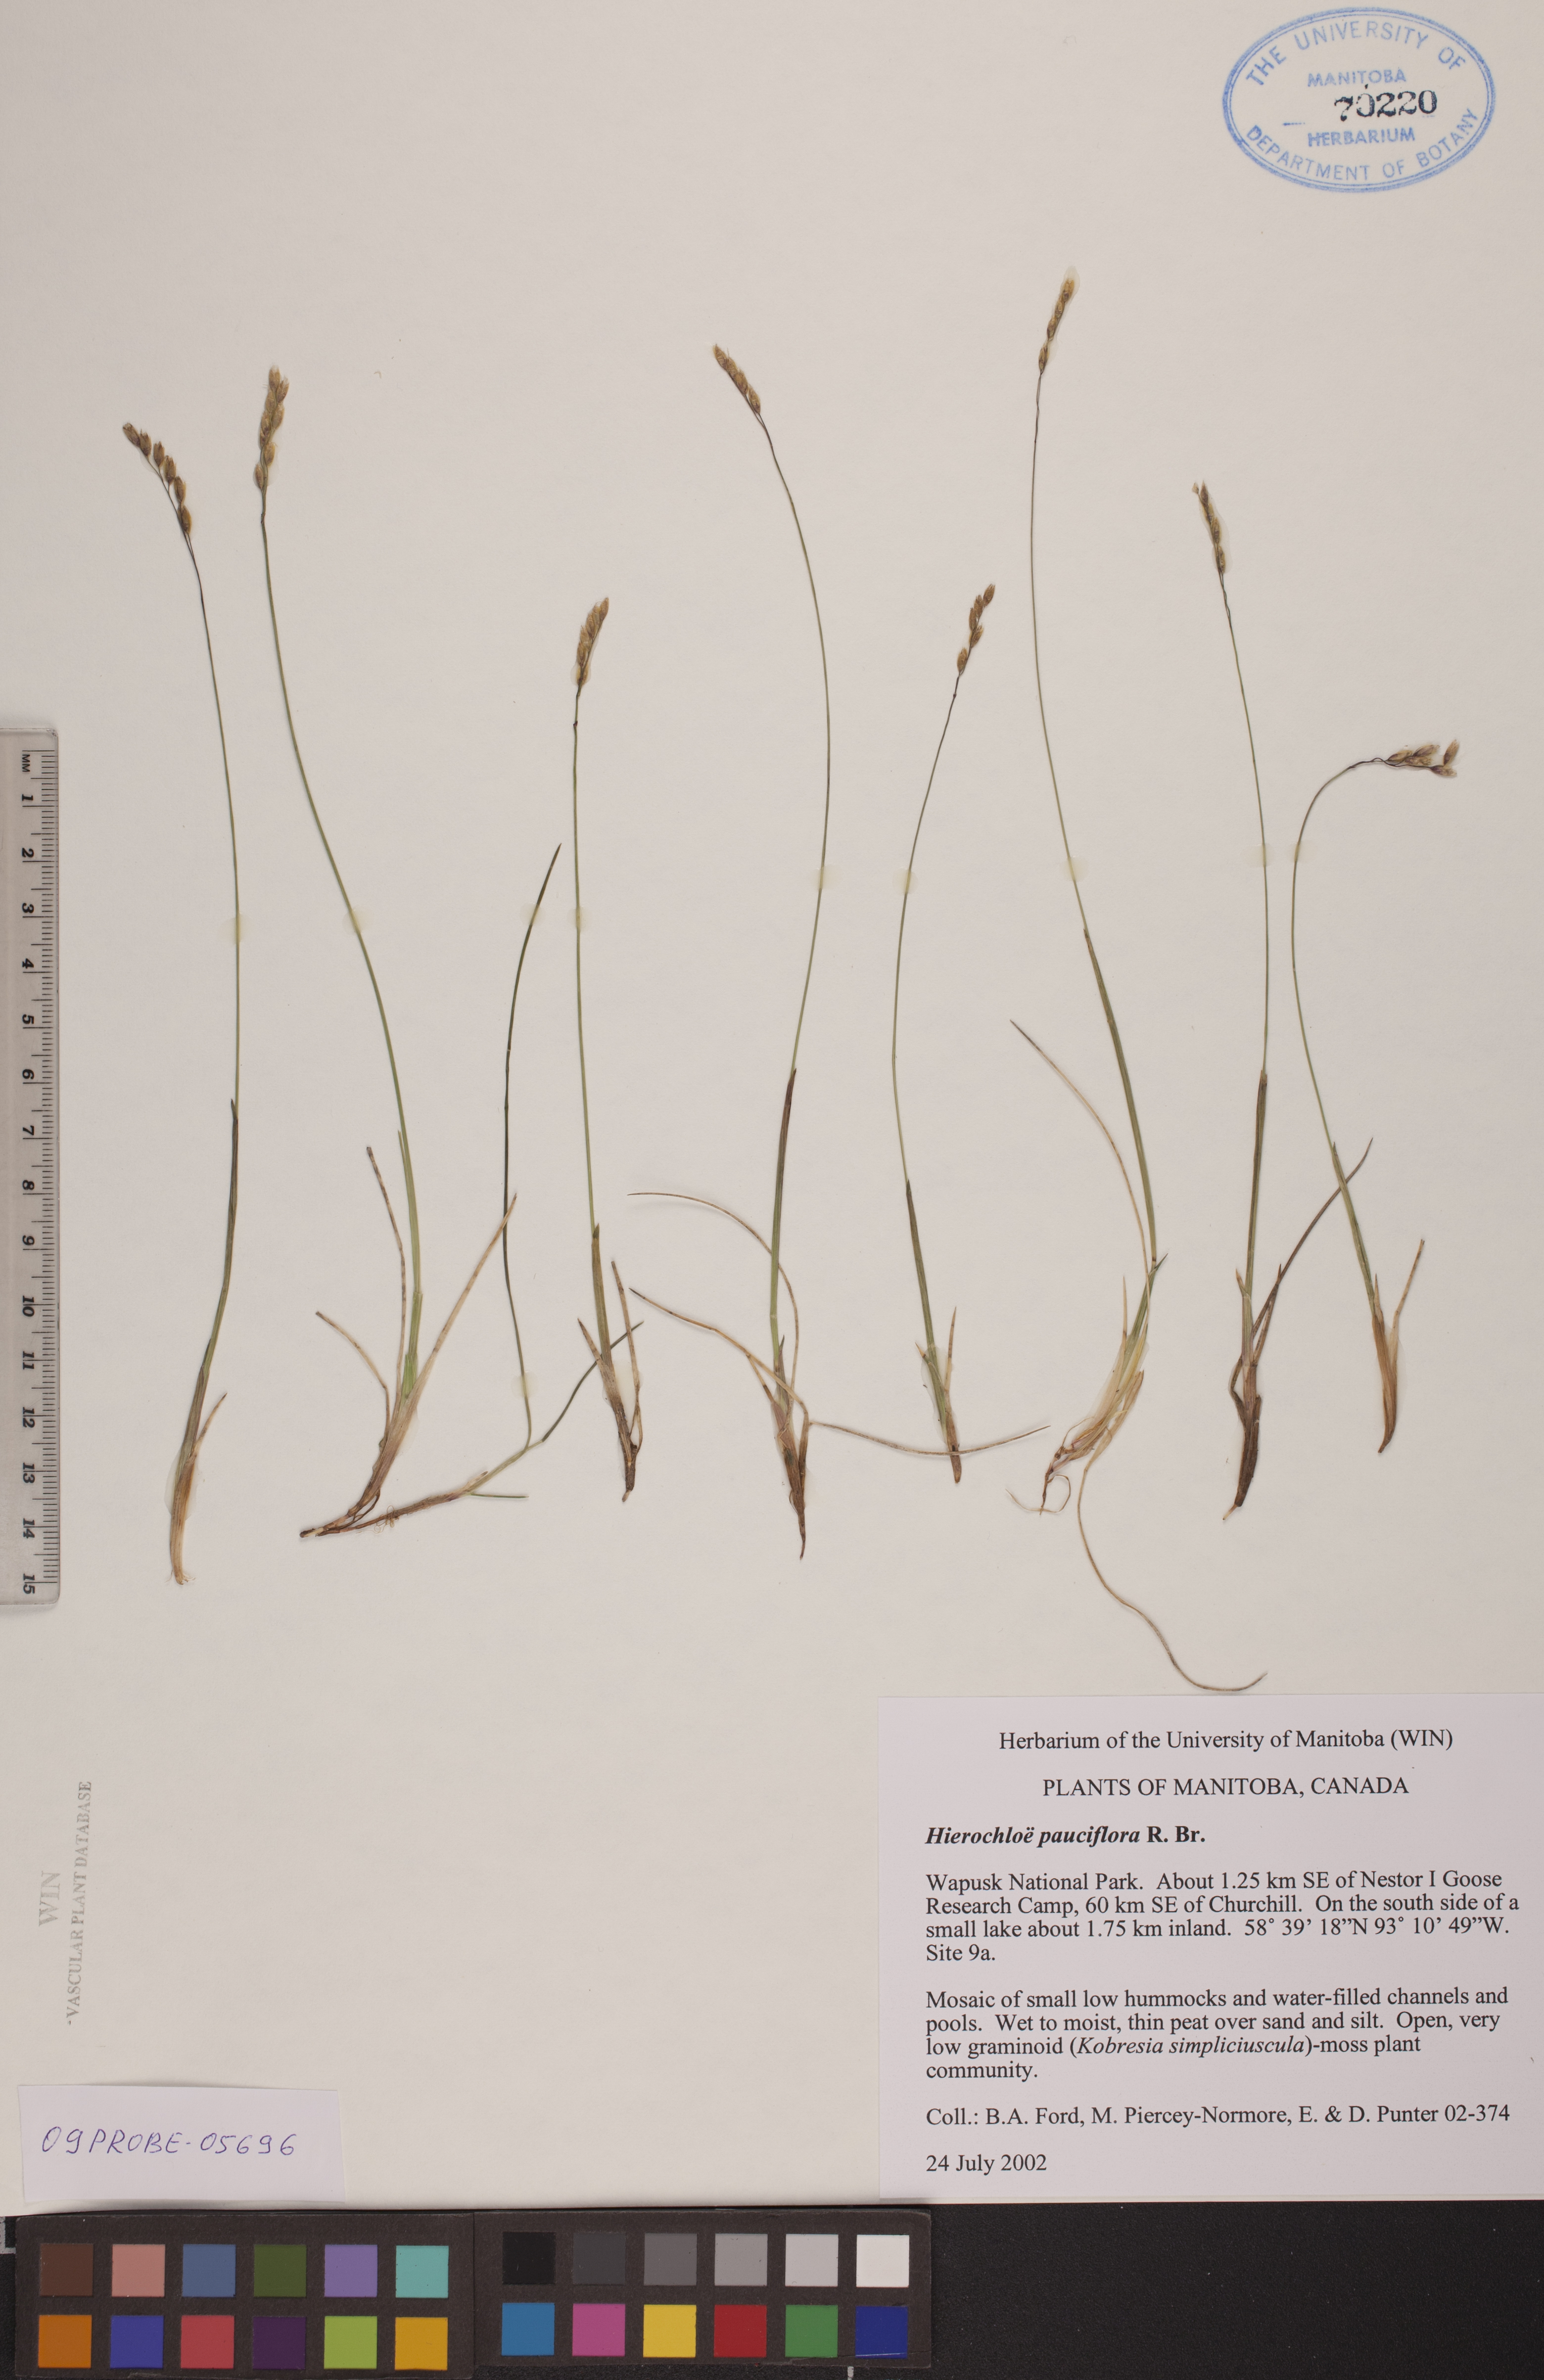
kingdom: Plantae
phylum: Tracheophyta
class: Liliopsida
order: Poales
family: Poaceae
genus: Anthoxanthum
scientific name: Anthoxanthum arcticum
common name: Arctic sweetgrass
